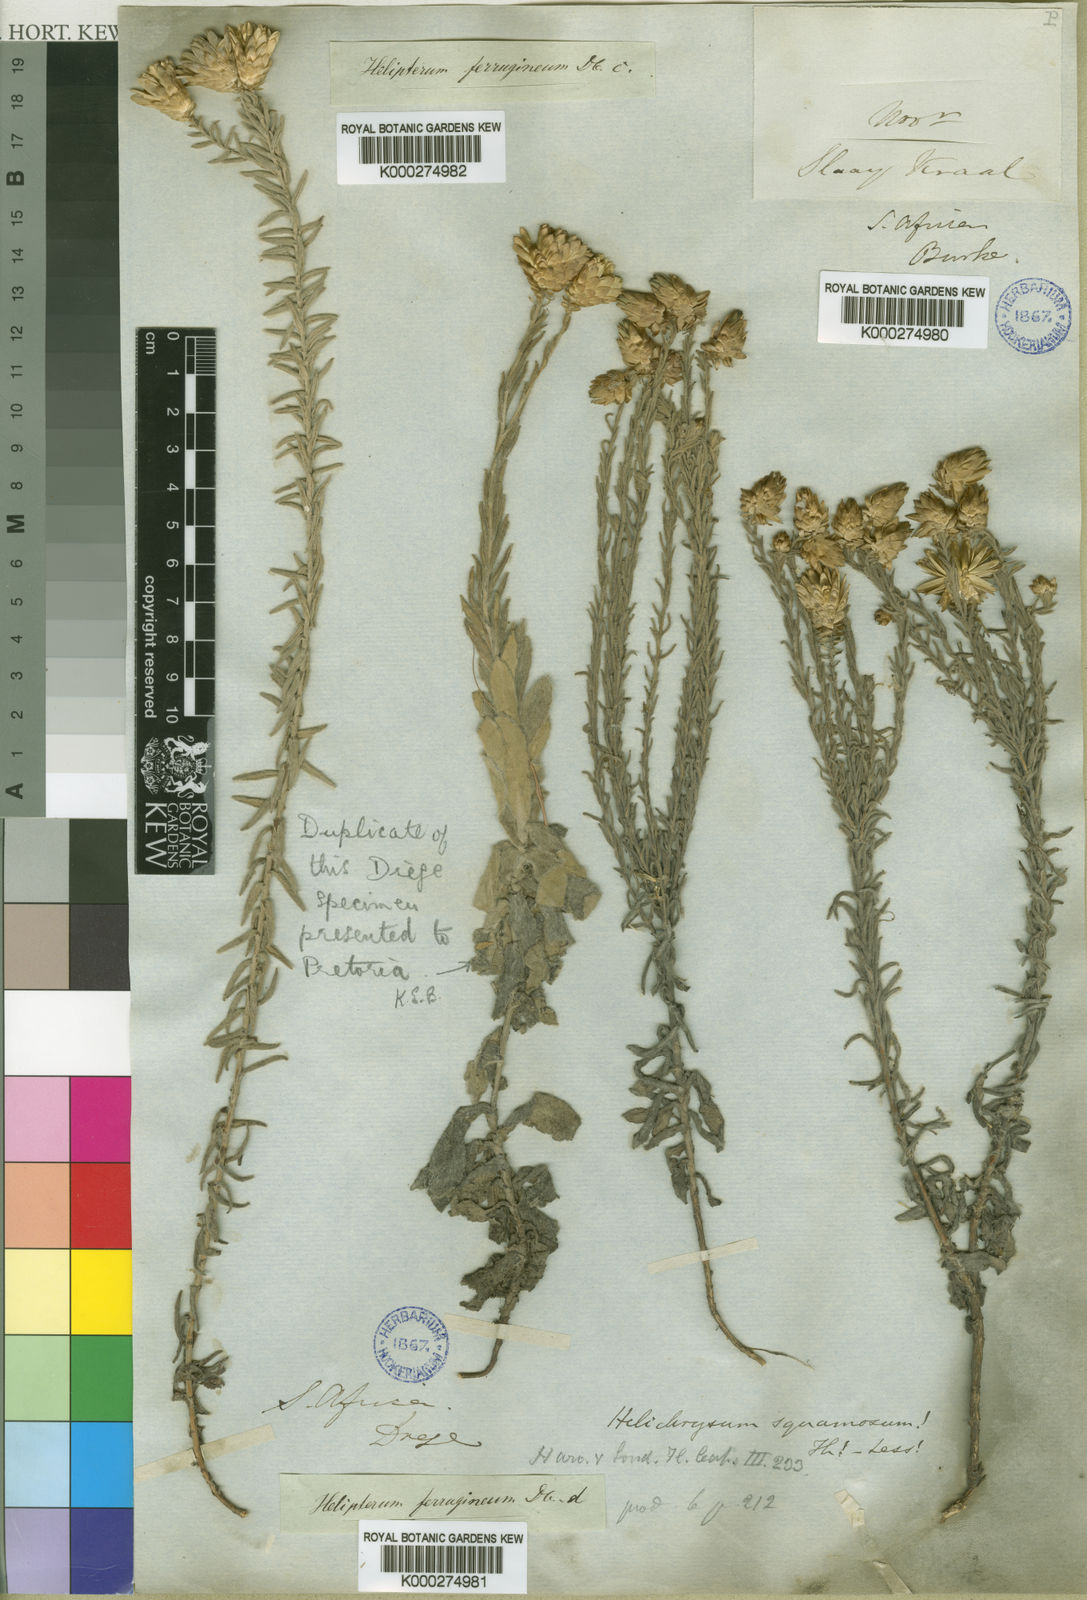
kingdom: Plantae
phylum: Tracheophyta
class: Magnoliopsida
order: Asterales
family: Asteraceae
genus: Edmondia
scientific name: Edmondia pinifolia
